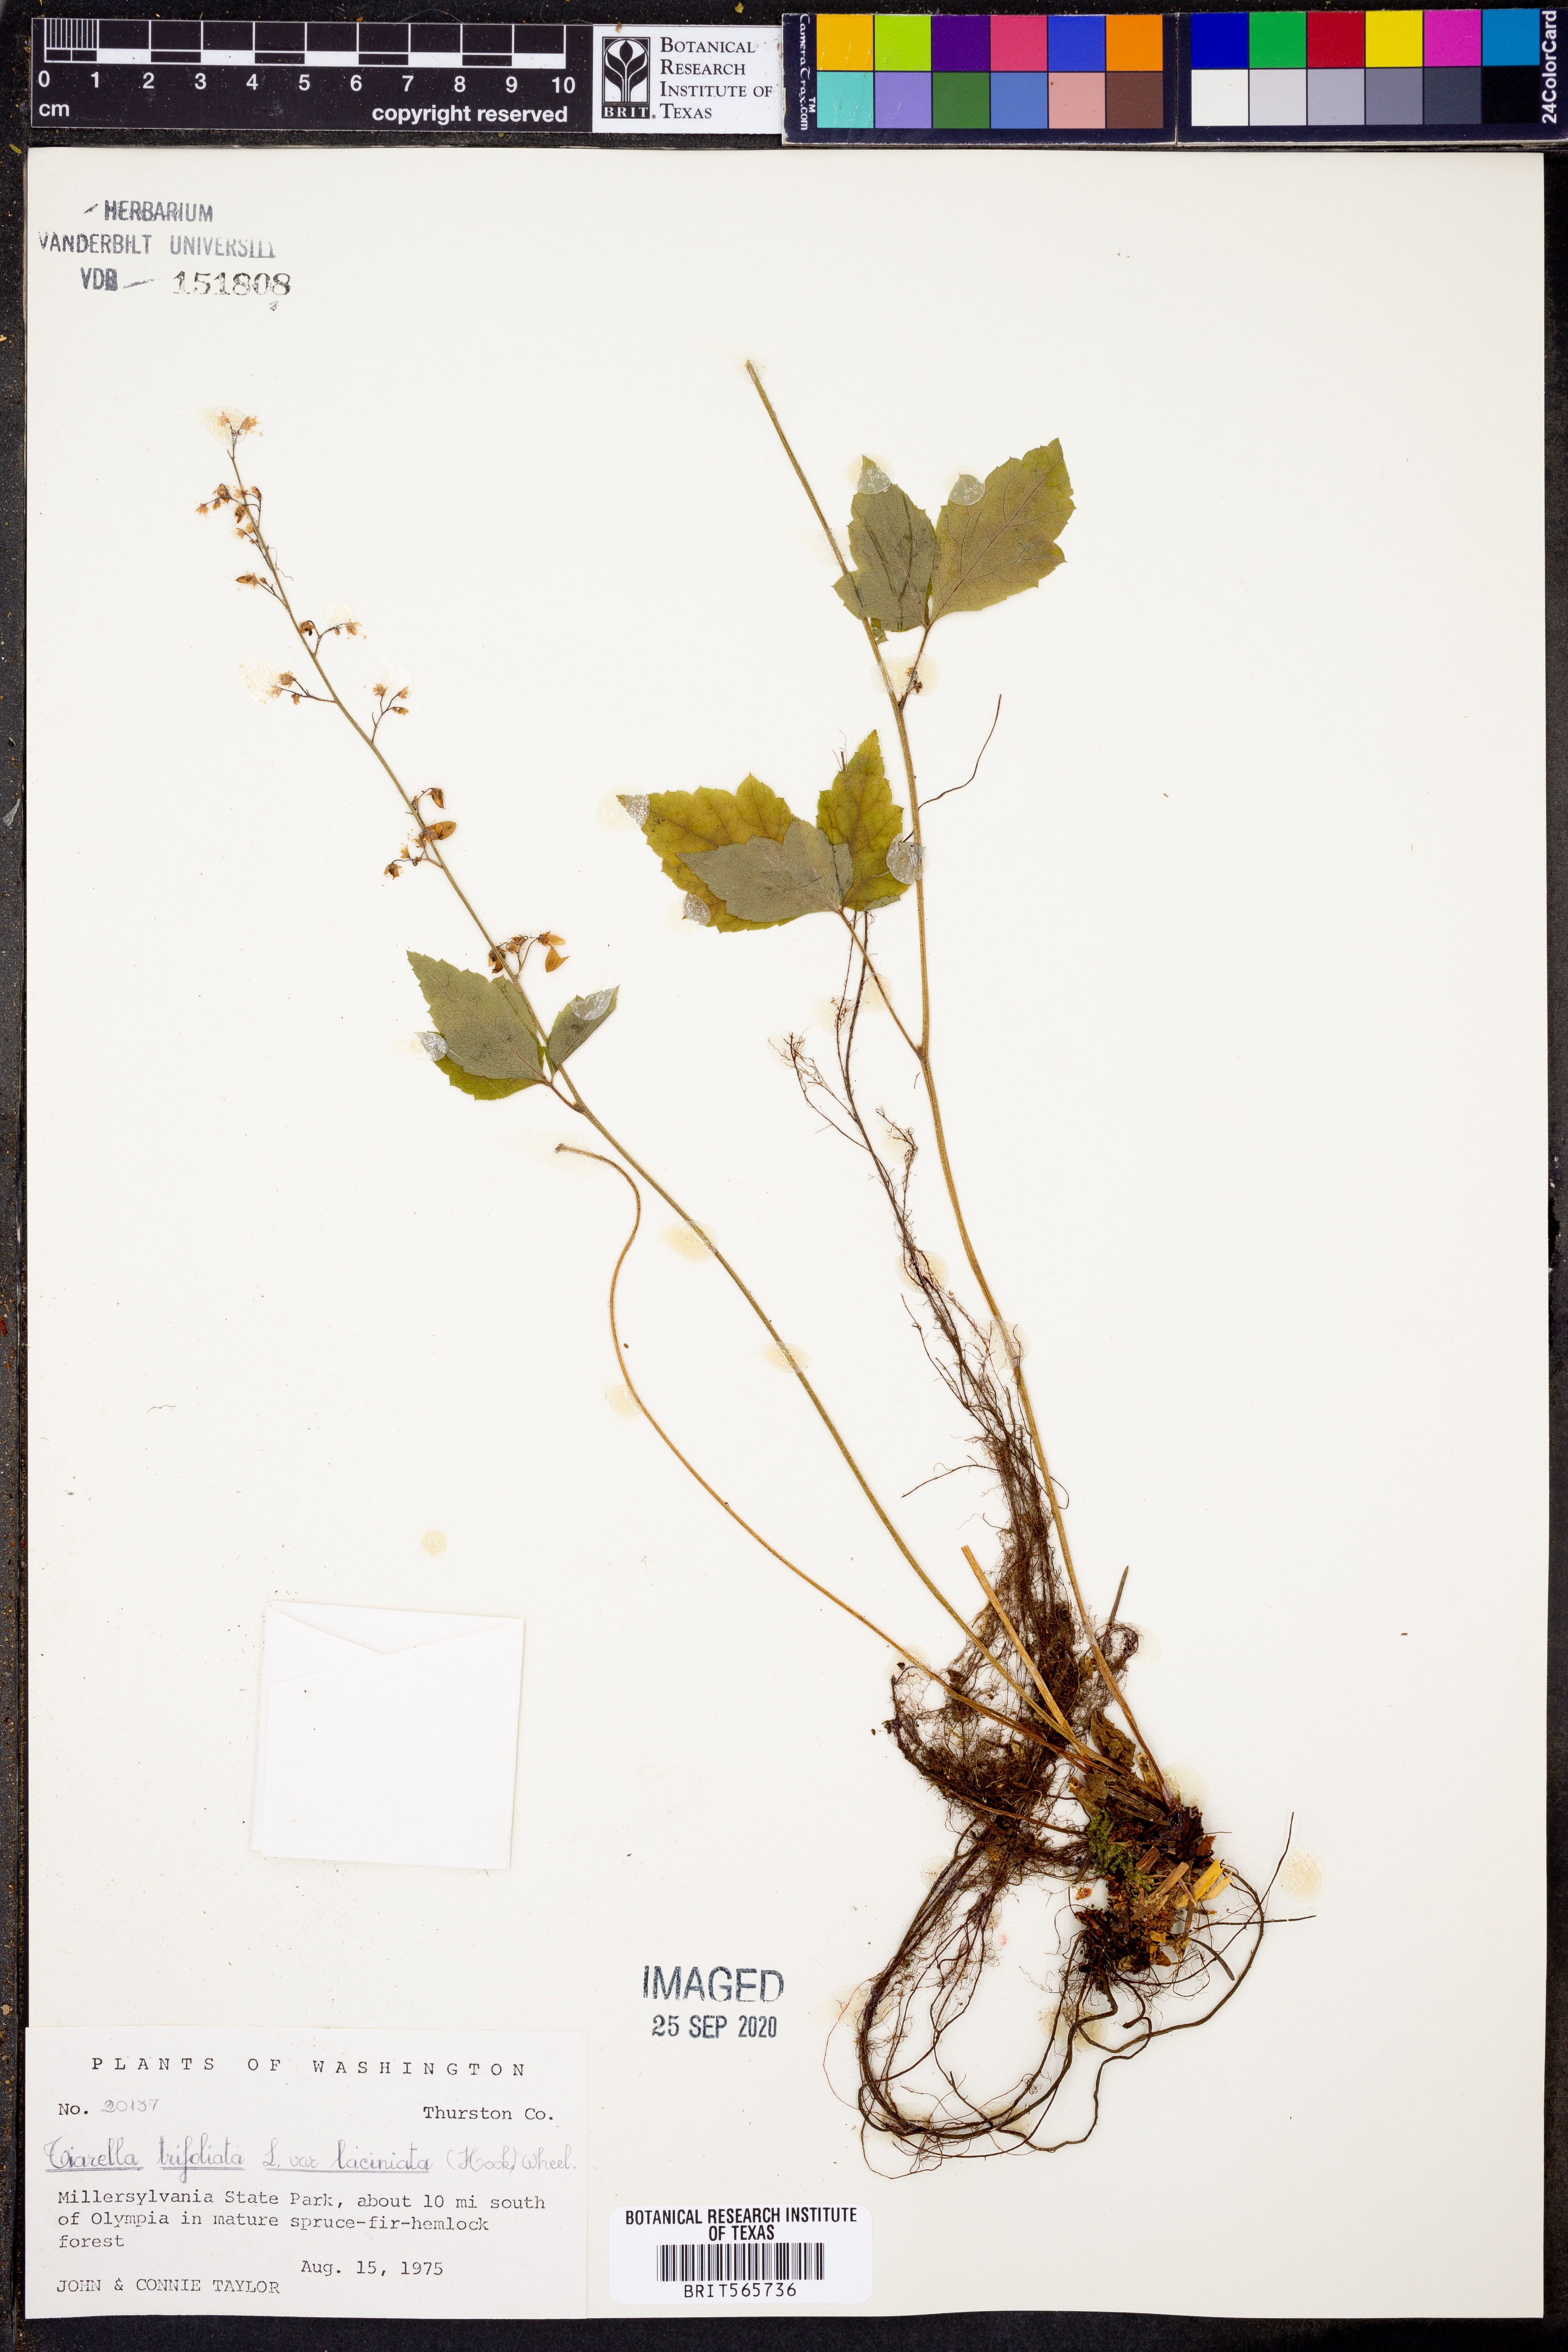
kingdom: Plantae
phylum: Tracheophyta
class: Magnoliopsida
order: Saxifragales
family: Saxifragaceae
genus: Tiarella
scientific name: Tiarella trifoliata
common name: Sugar-scoop
